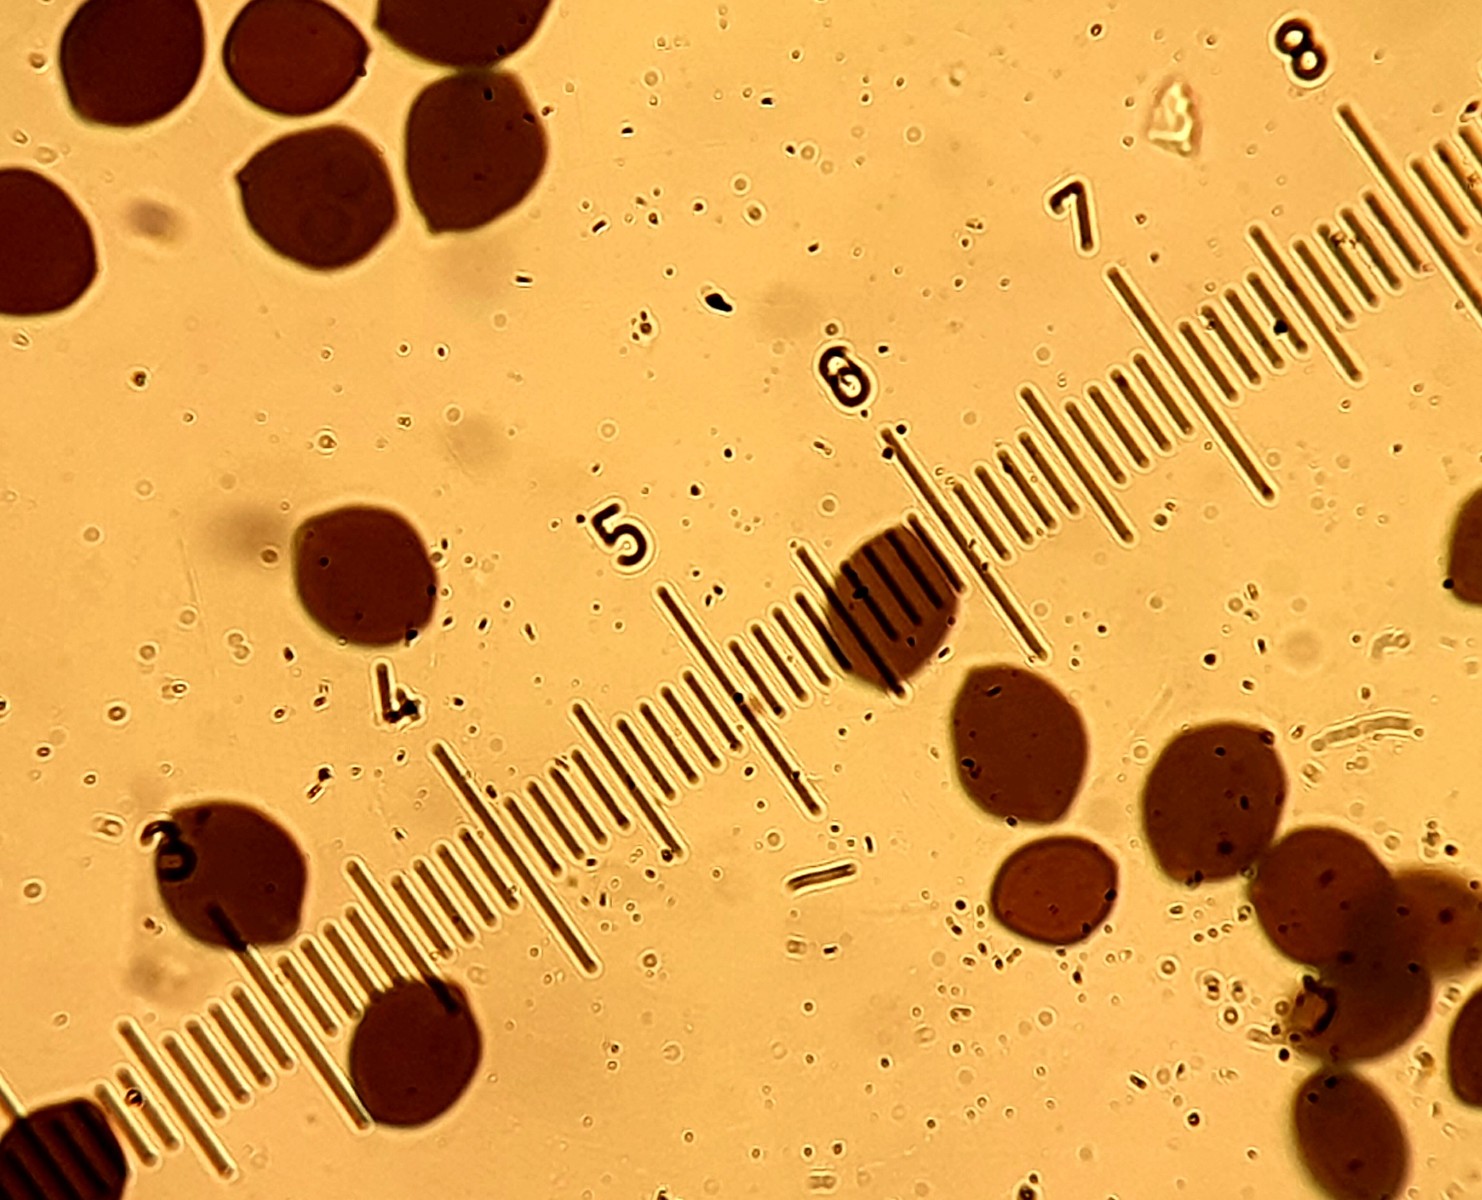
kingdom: Fungi
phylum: Basidiomycota
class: Agaricomycetes
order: Agaricales
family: Psathyrellaceae
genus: Coprinopsis
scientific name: Coprinopsis nivea
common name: snehvid blækhat
